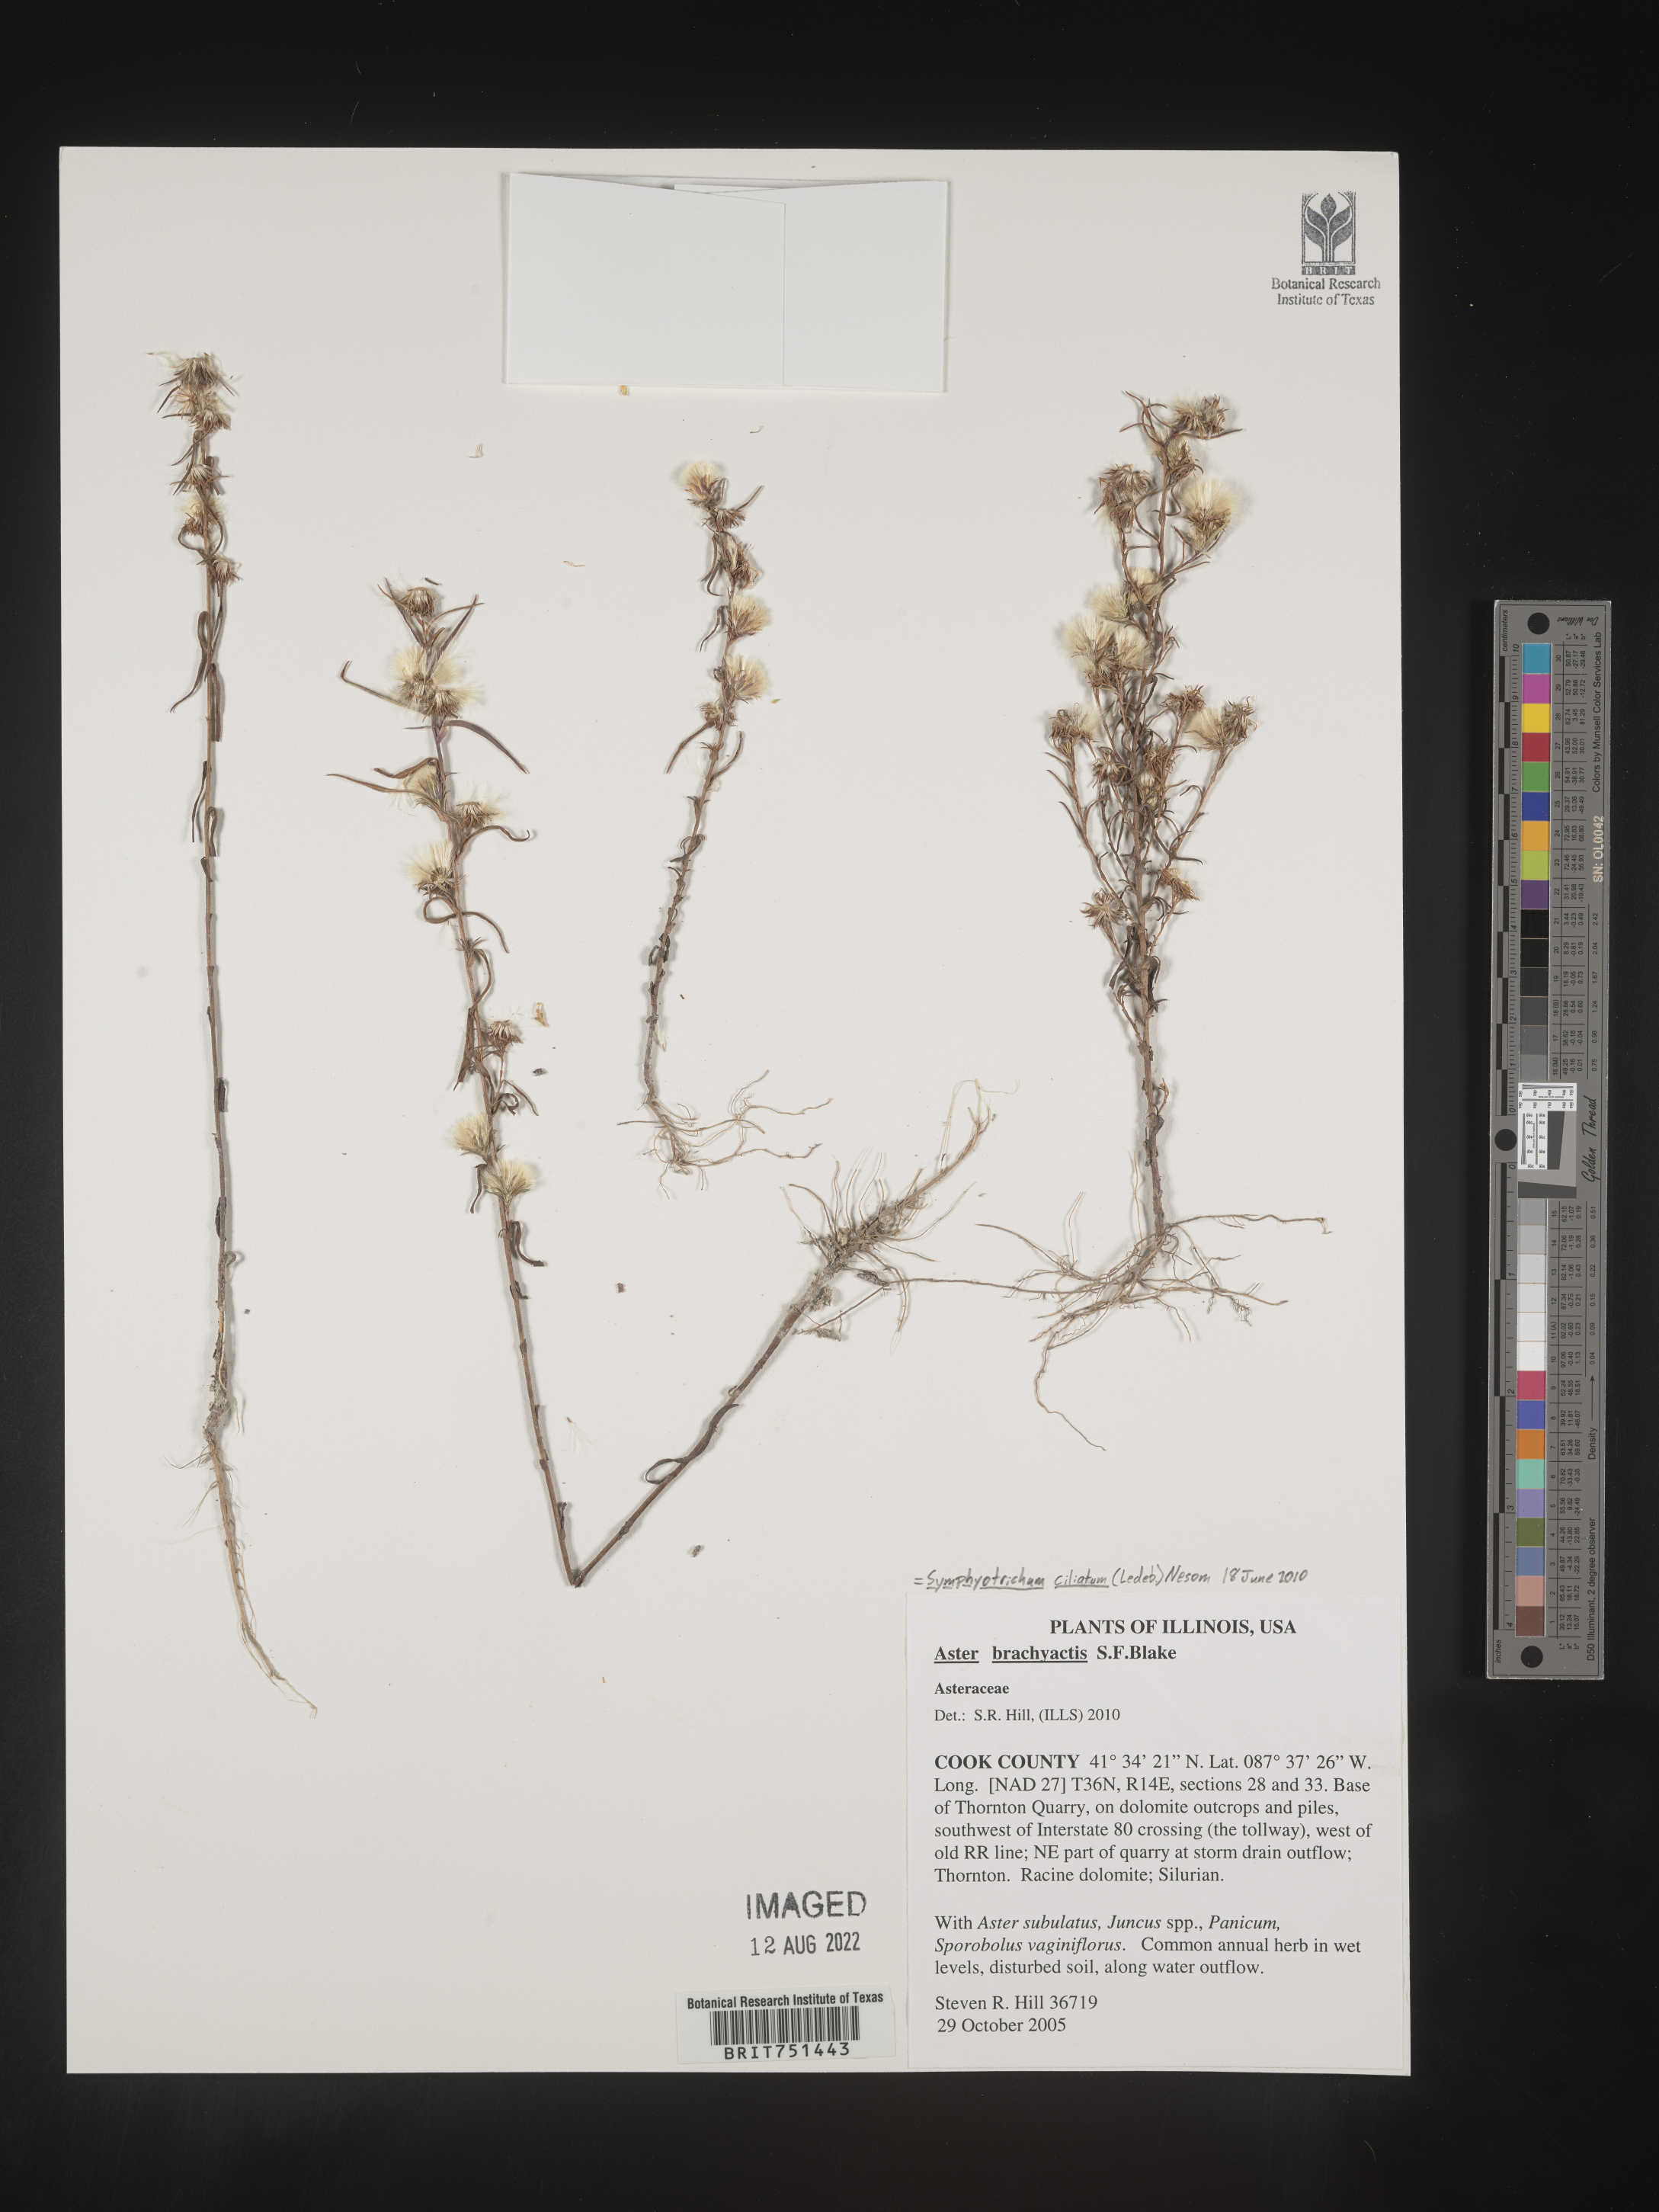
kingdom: Plantae
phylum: Tracheophyta
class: Magnoliopsida
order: Asterales
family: Asteraceae
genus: Symphyotrichum
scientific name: Symphyotrichum ciliatum
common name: Rayless annual aster
